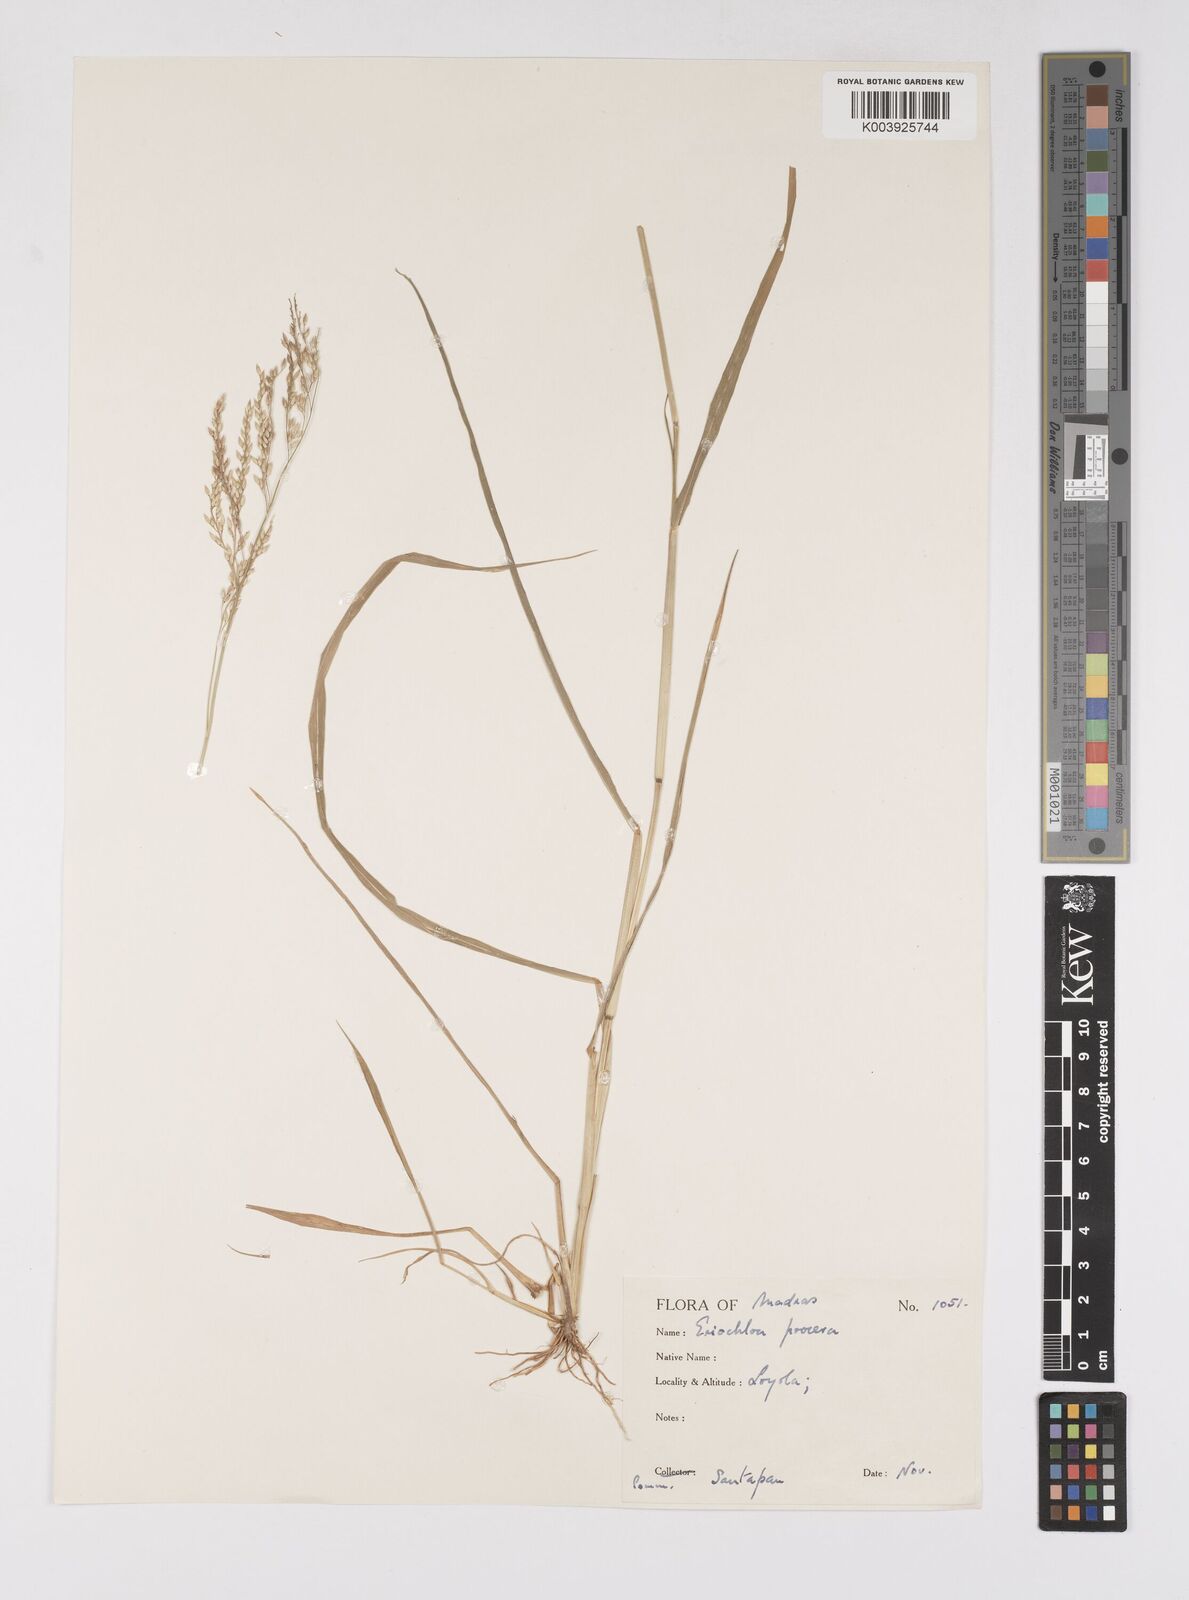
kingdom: Plantae
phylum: Tracheophyta
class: Liliopsida
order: Poales
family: Poaceae
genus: Eriochloa
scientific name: Eriochloa procera
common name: Spring grass
